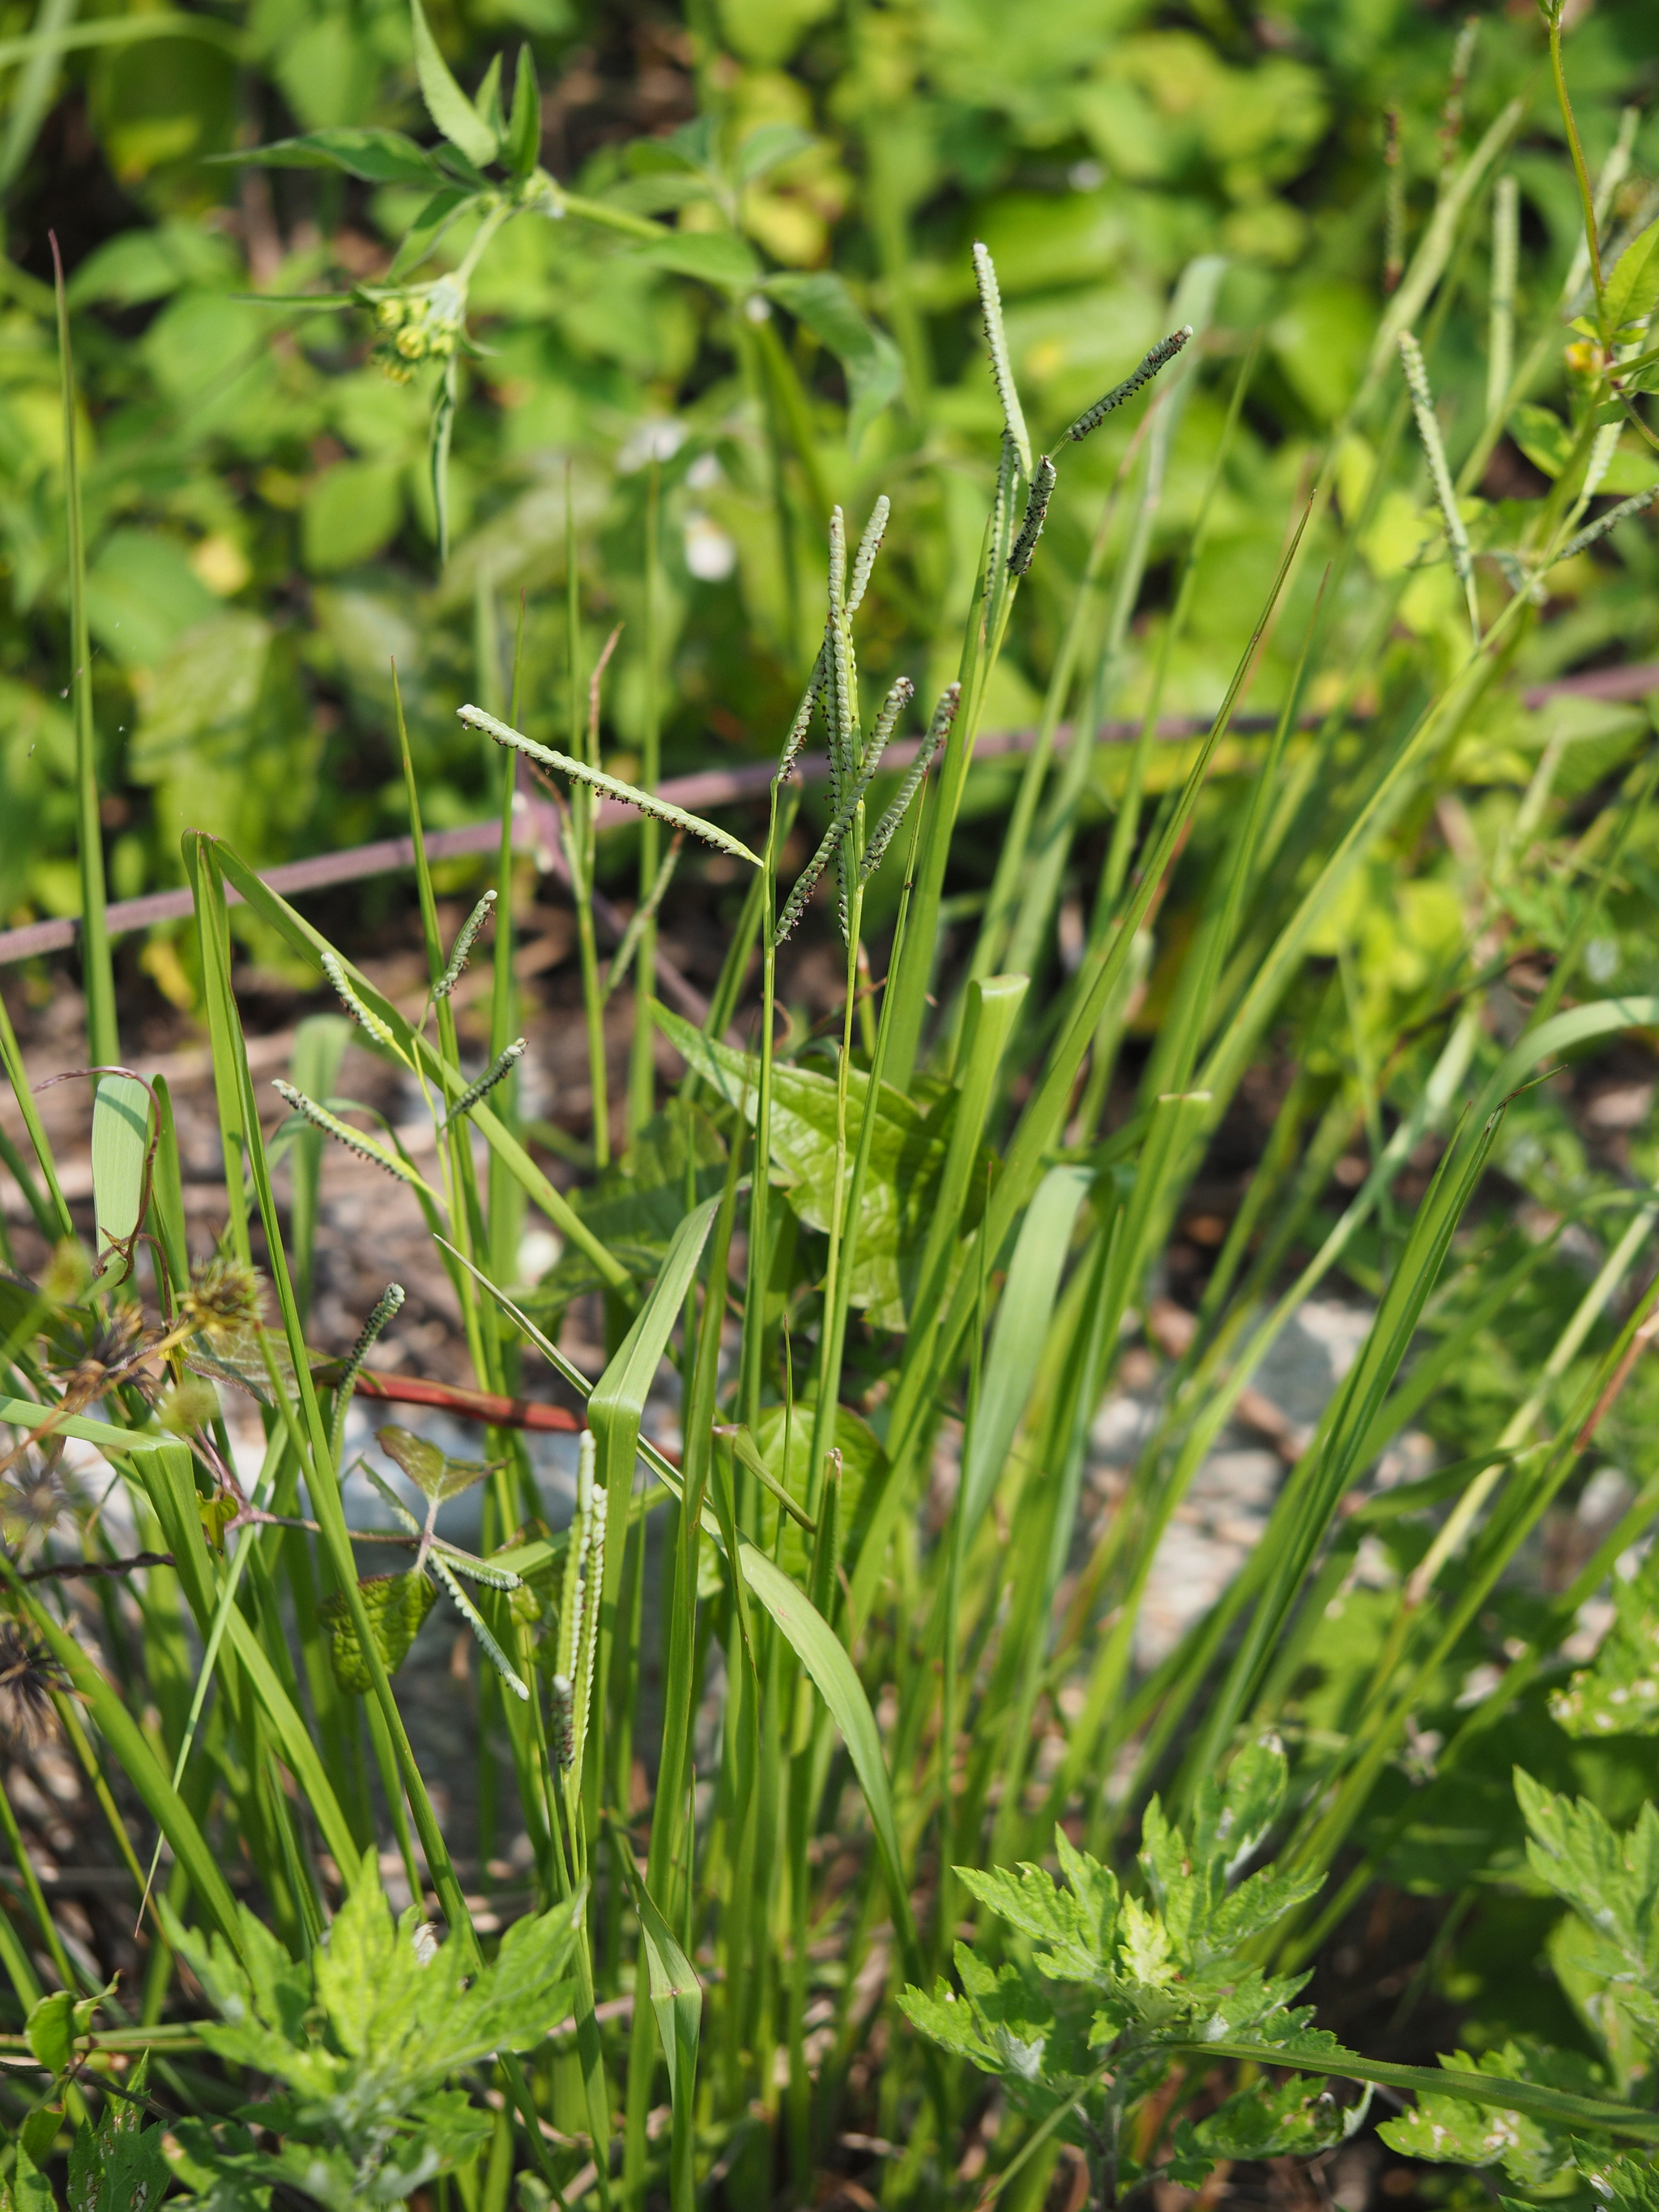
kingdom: Plantae
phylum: Tracheophyta
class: Liliopsida
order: Poales
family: Poaceae
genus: Paspalum
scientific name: Paspalum orbiculare
